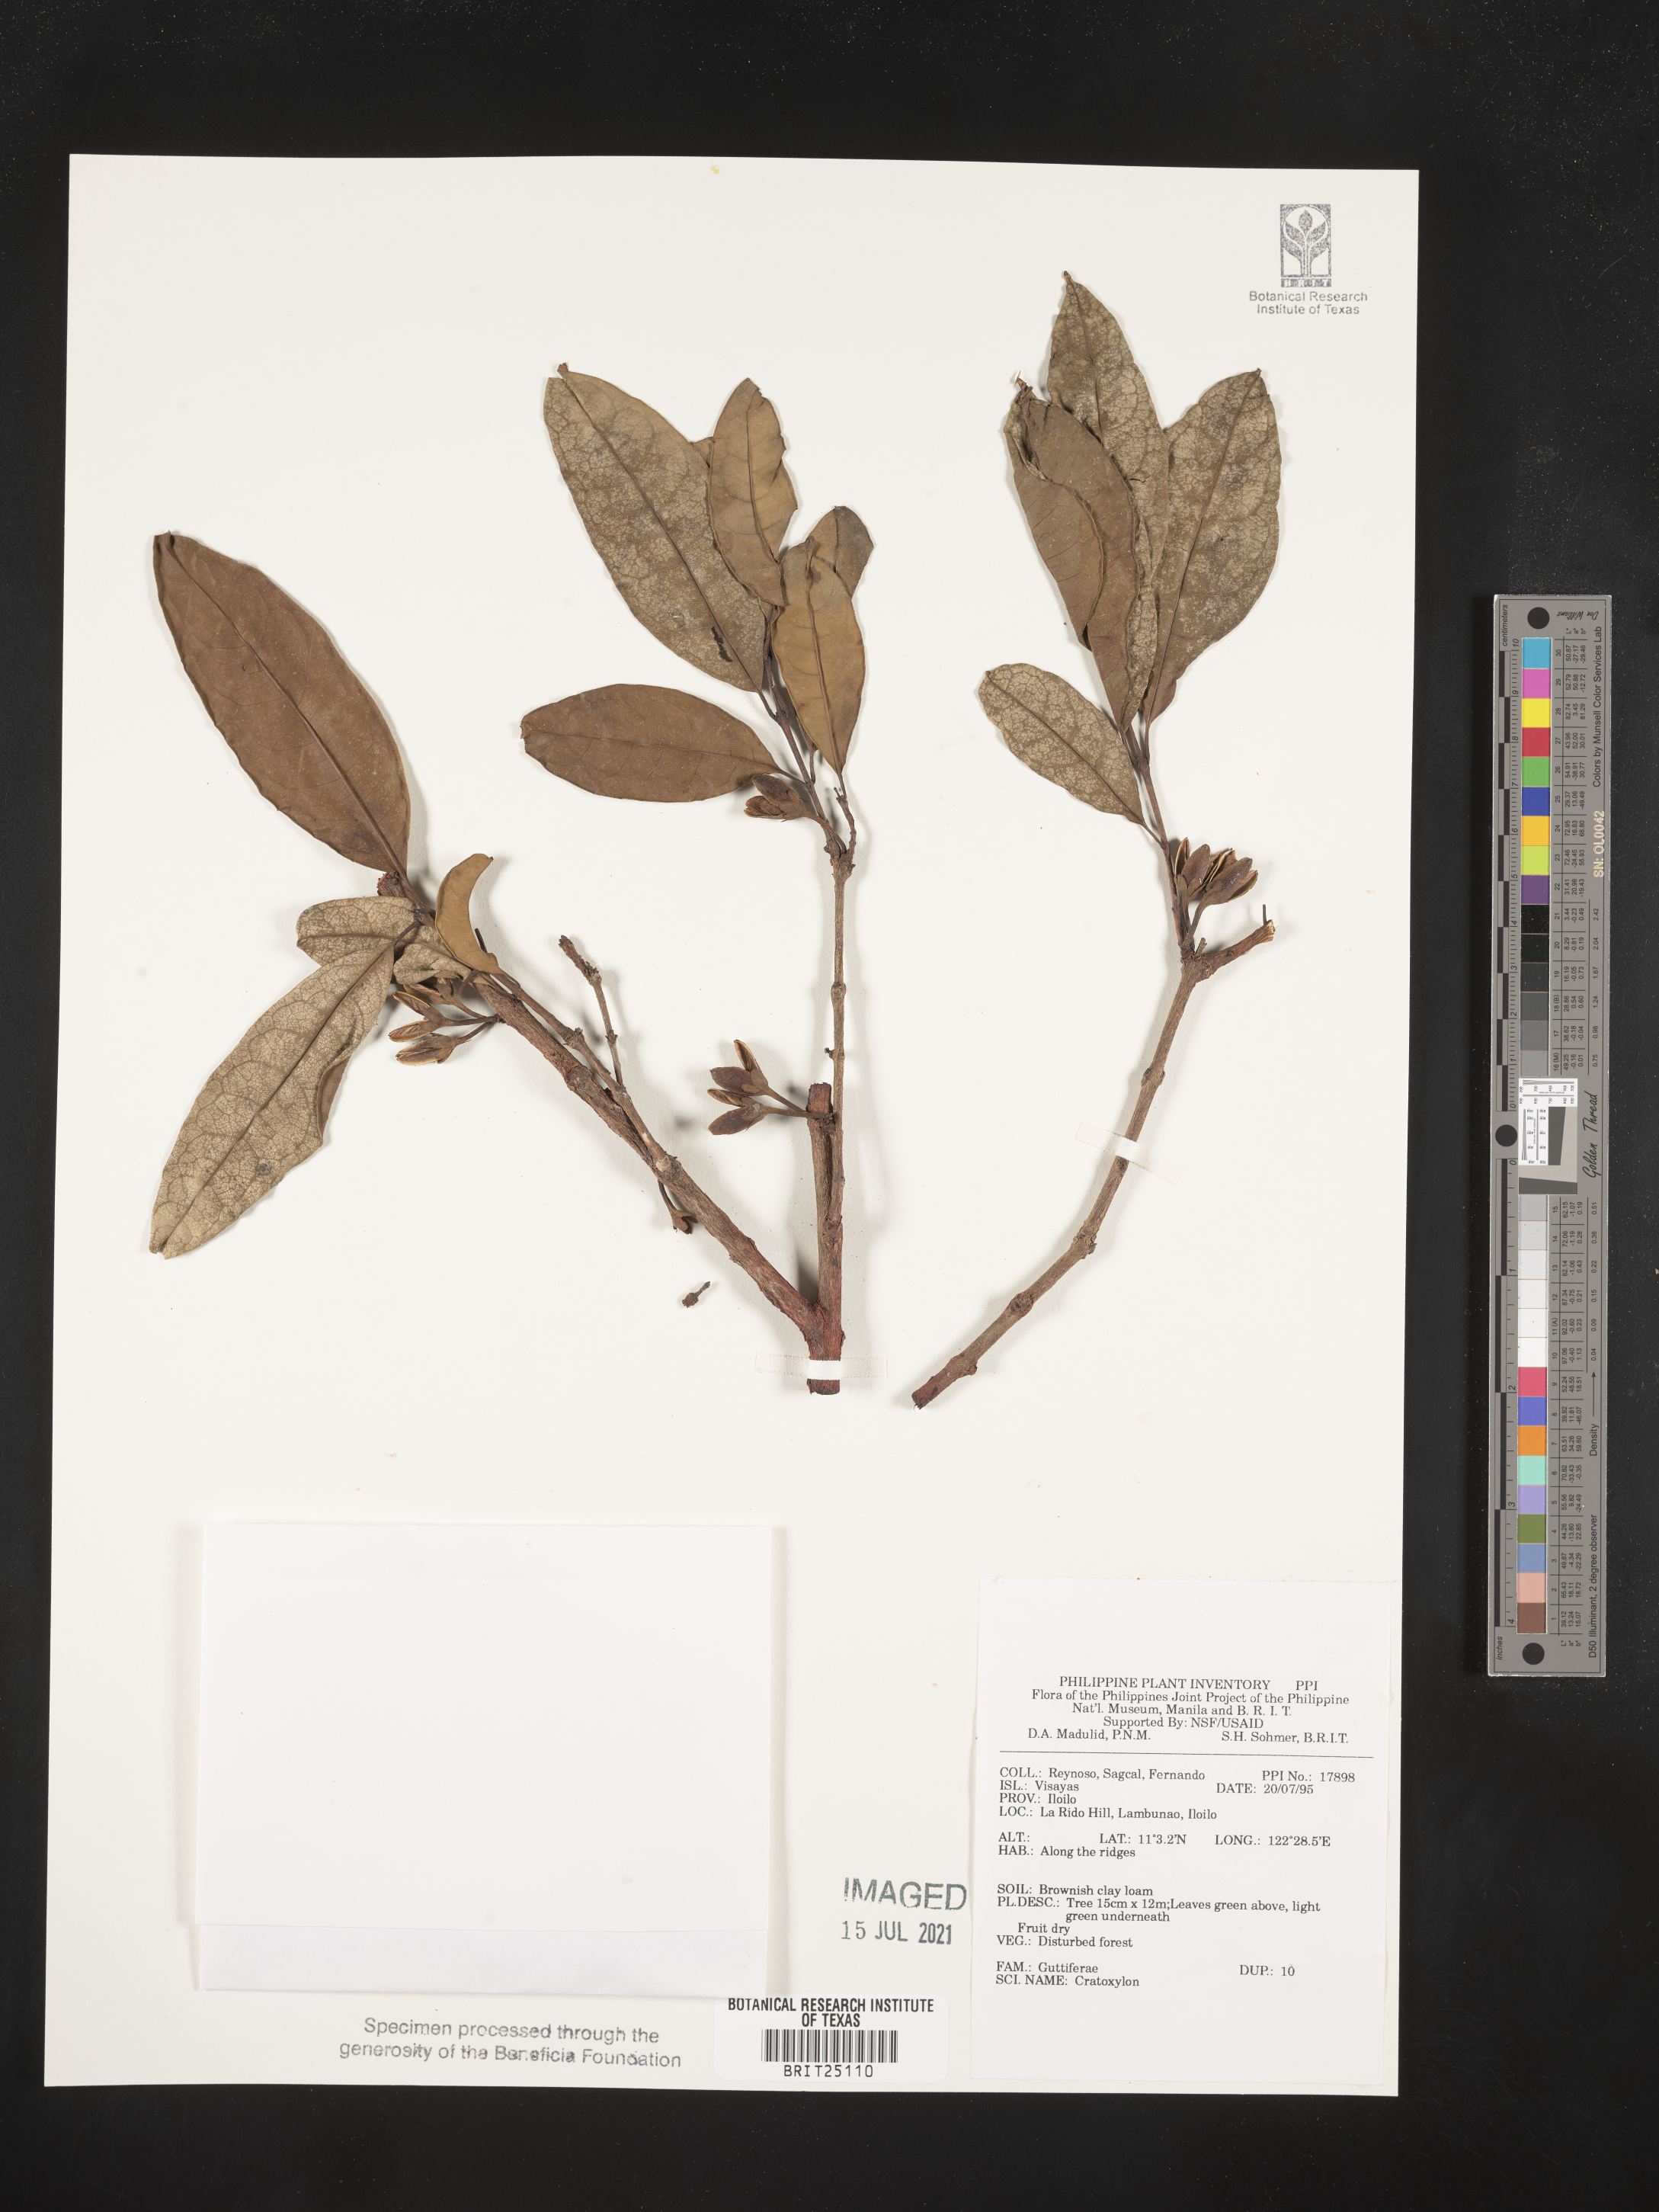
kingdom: Plantae
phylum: Tracheophyta
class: Magnoliopsida
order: Malpighiales
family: Hypericaceae
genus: Cratoxylum
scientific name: Cratoxylum
